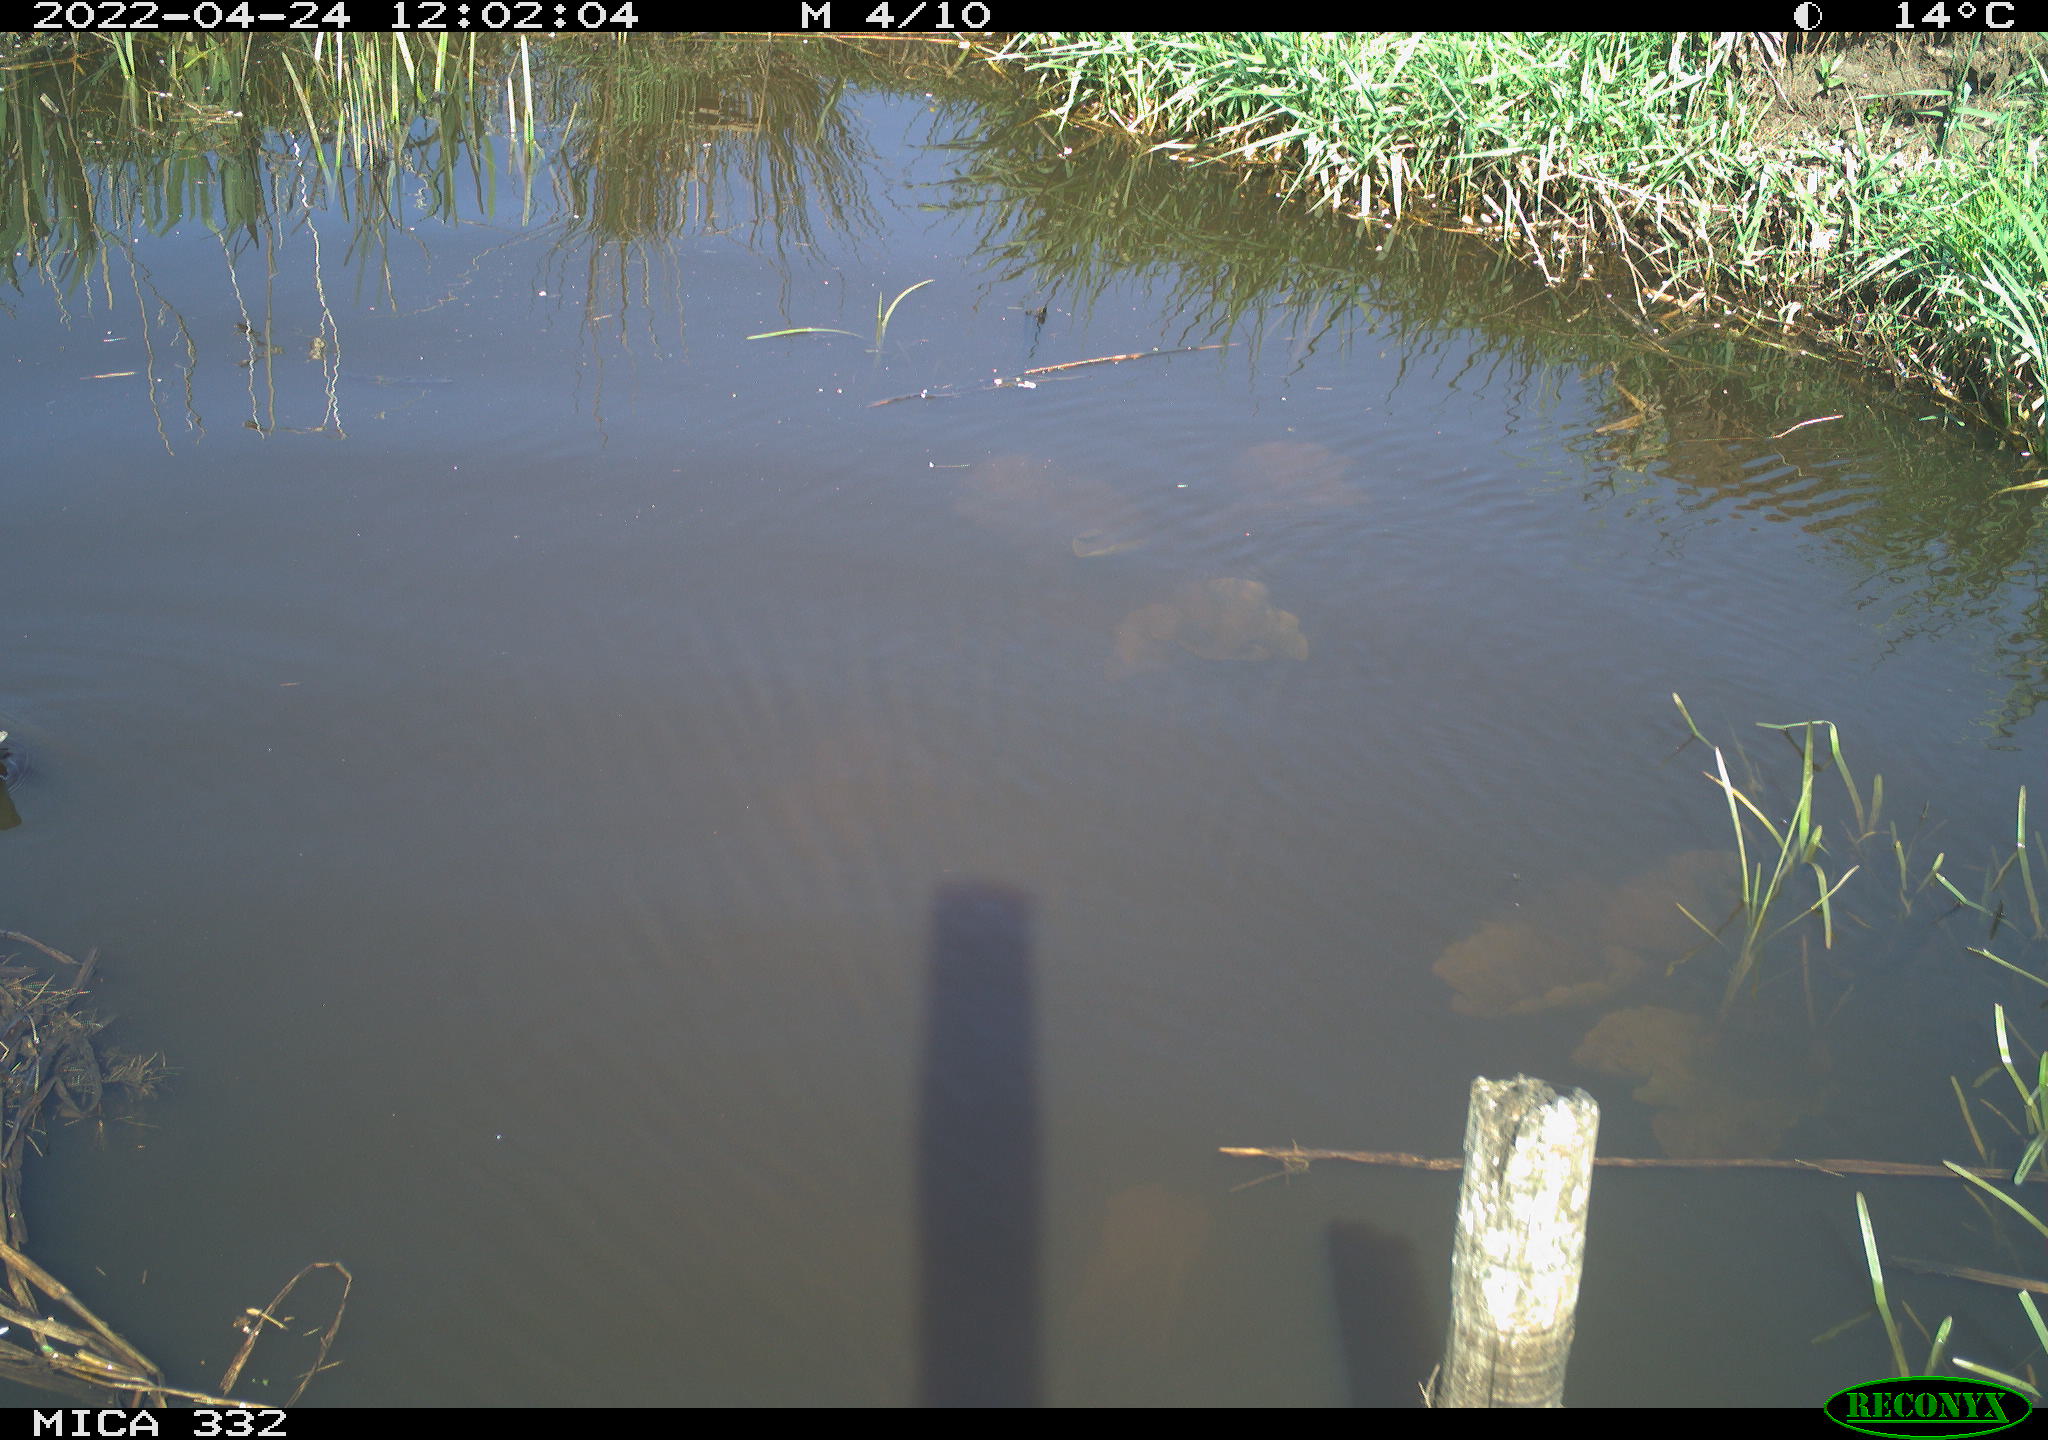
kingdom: Animalia
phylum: Chordata
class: Aves
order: Gruiformes
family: Rallidae
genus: Gallinula
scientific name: Gallinula chloropus
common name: Common moorhen
